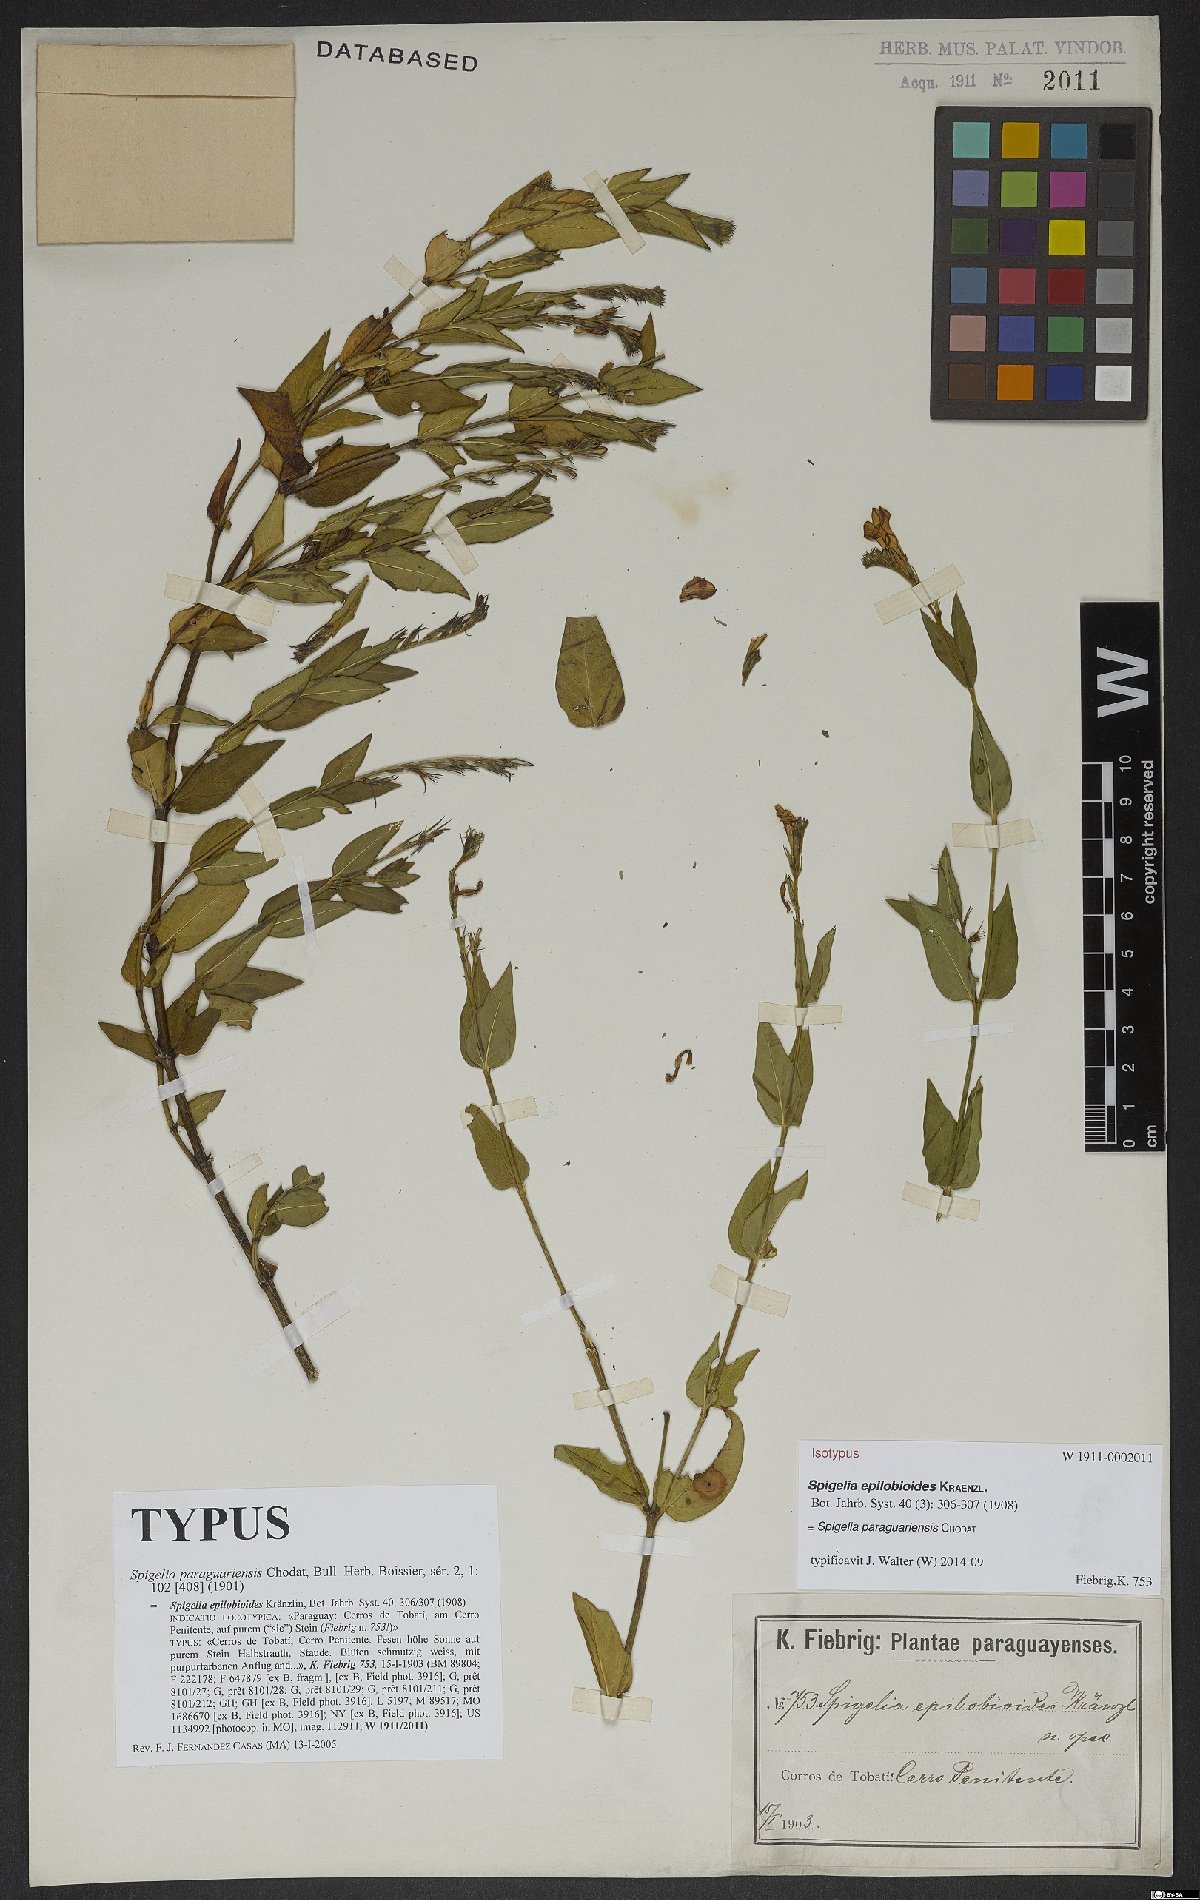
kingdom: Plantae
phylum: Tracheophyta
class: Magnoliopsida
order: Gentianales
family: Loganiaceae
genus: Spigelia
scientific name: Spigelia paraguariensis
